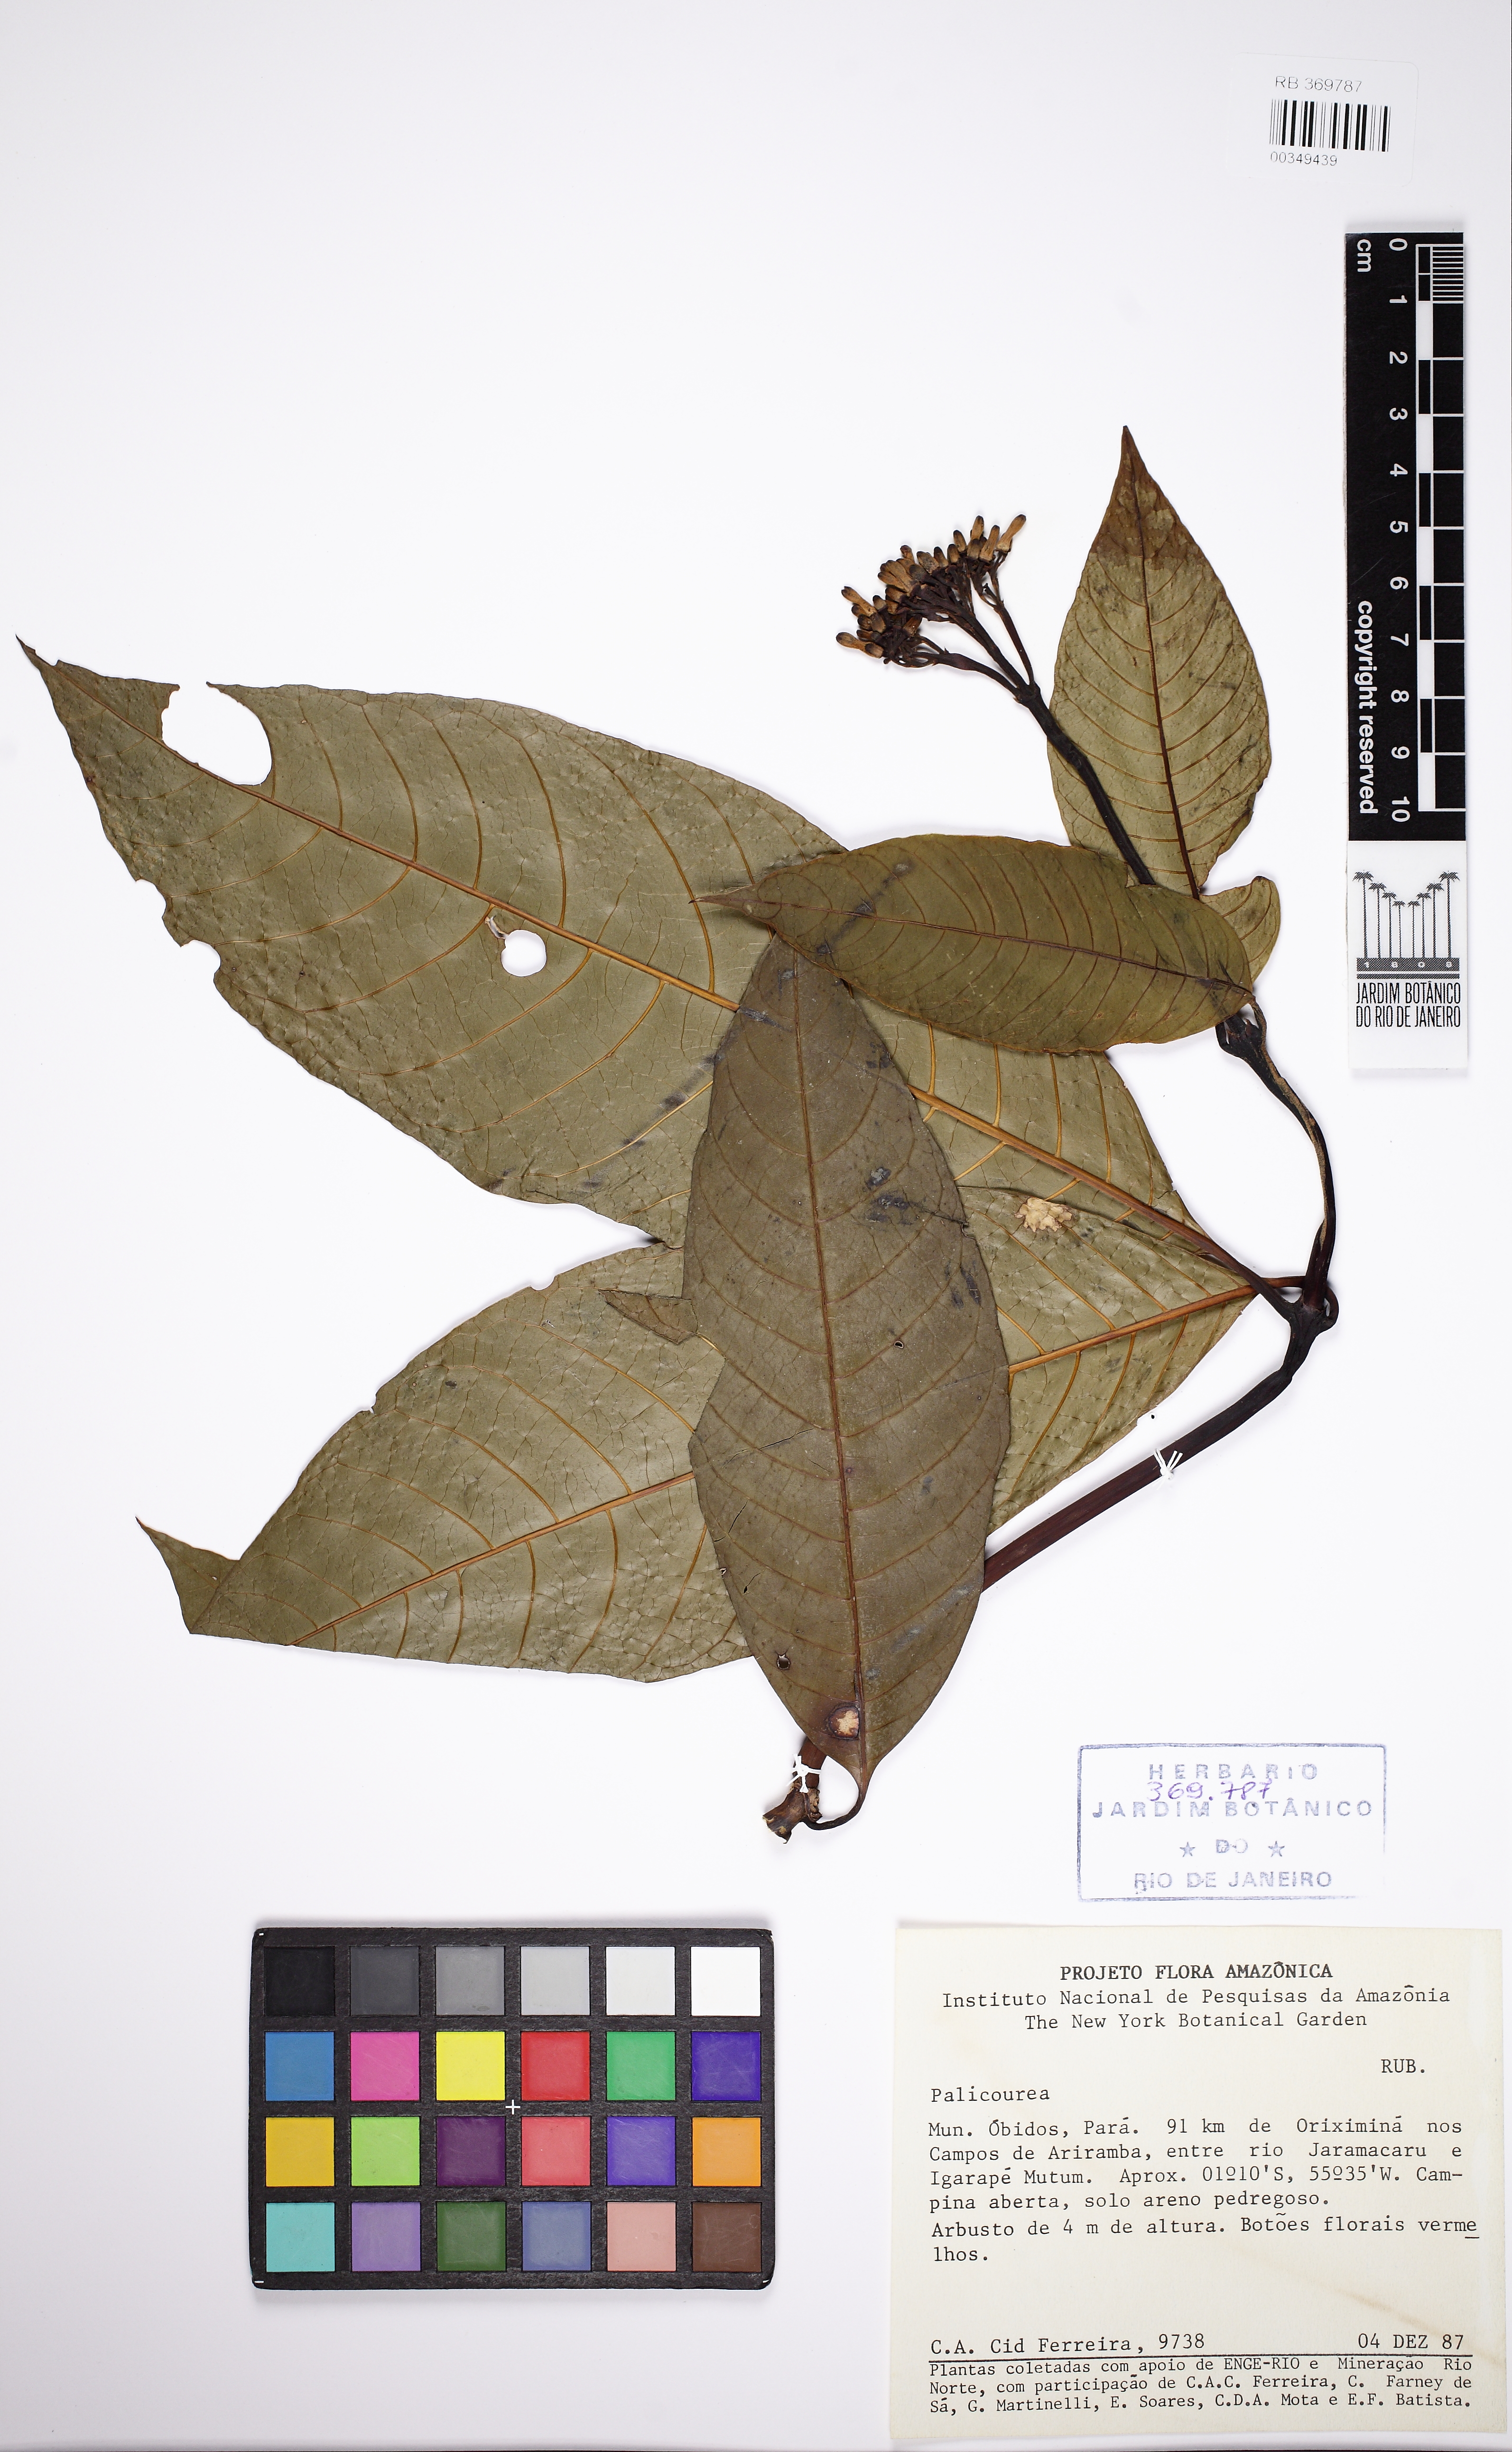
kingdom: Plantae
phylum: Tracheophyta
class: Magnoliopsida
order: Gentianales
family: Rubiaceae
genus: Palicourea
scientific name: Palicourea
